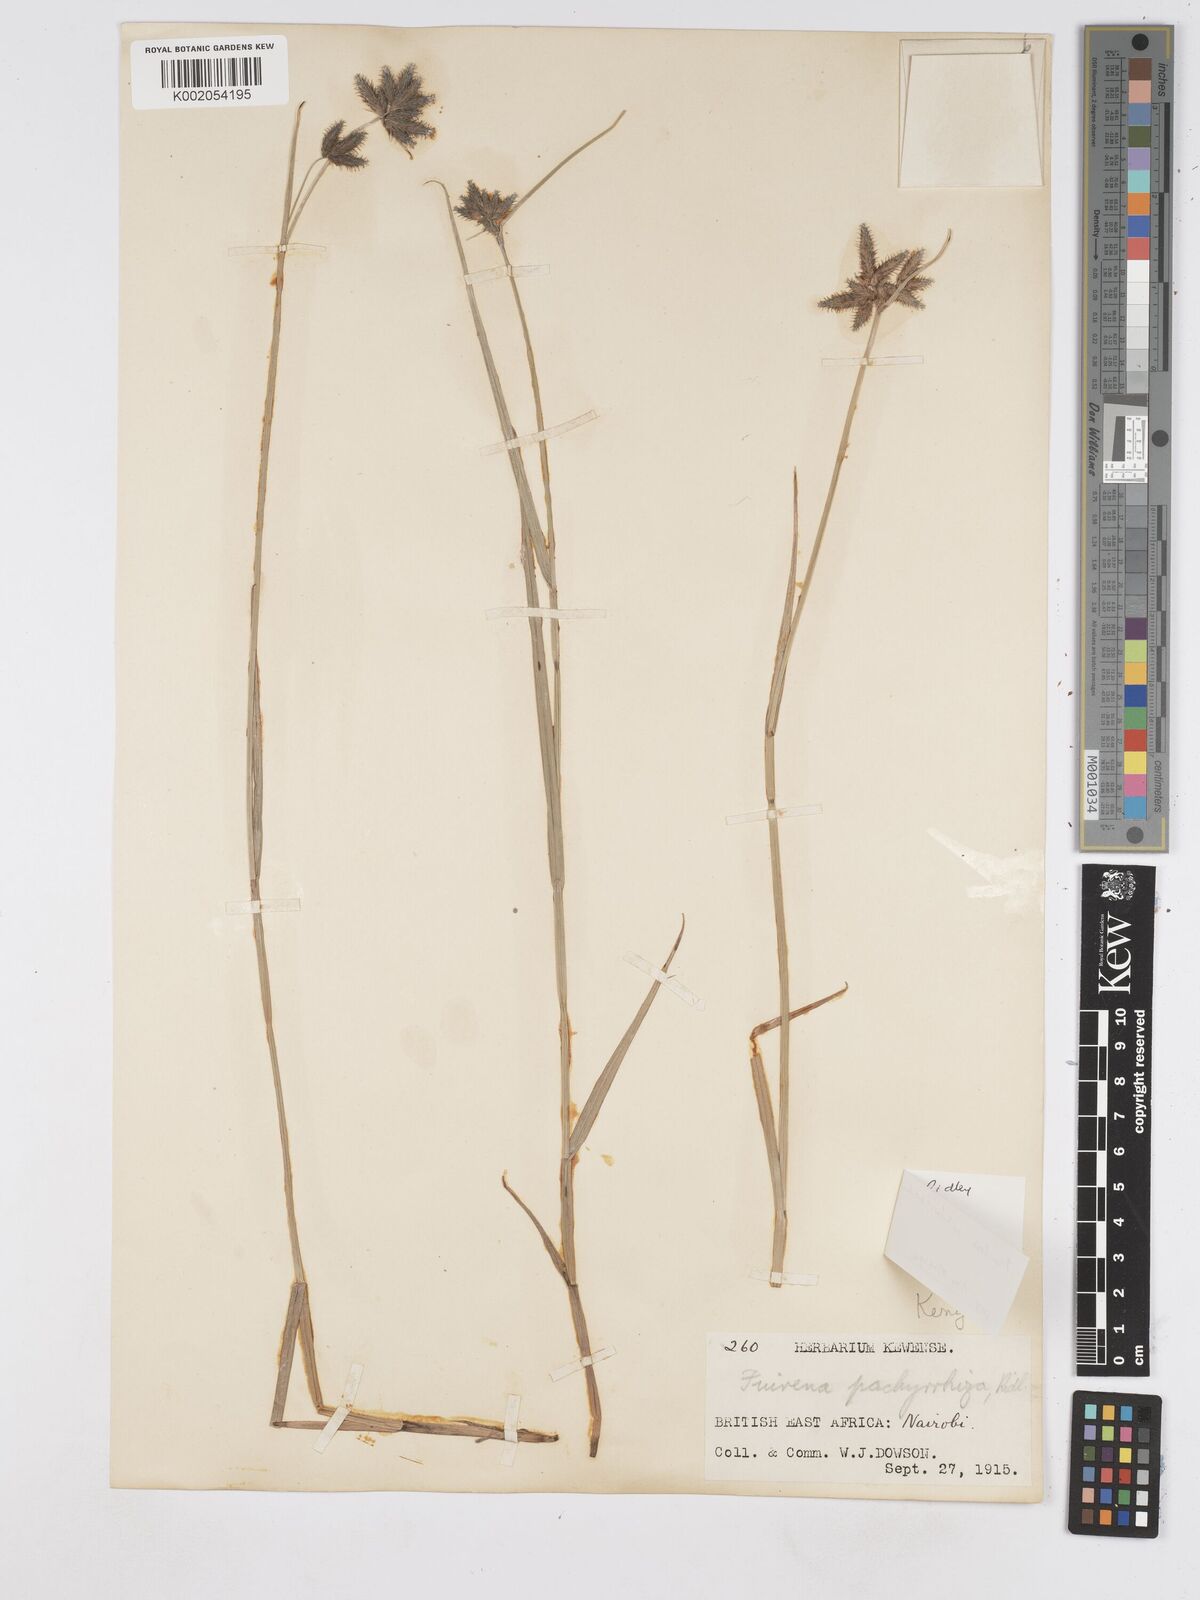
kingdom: Plantae
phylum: Tracheophyta
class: Liliopsida
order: Poales
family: Cyperaceae
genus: Fuirena
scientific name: Fuirena welwitschii
